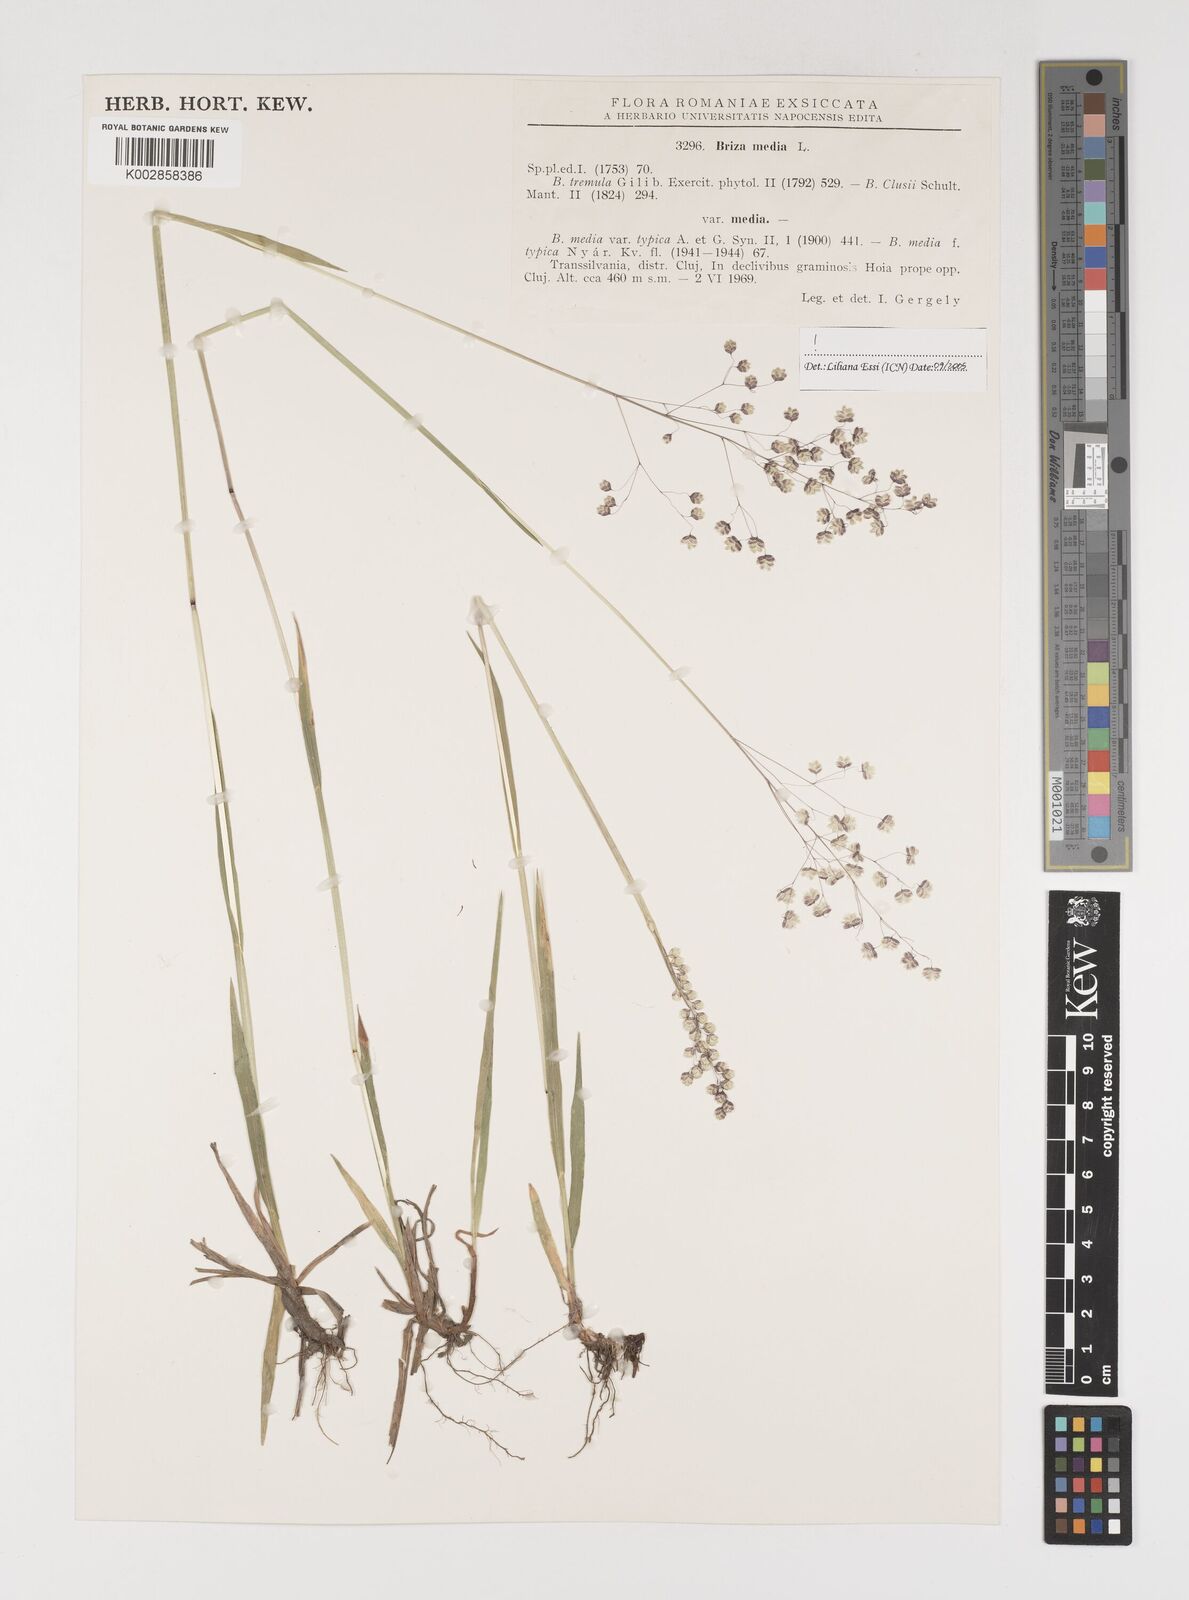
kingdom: Plantae
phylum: Tracheophyta
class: Liliopsida
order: Poales
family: Poaceae
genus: Briza
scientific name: Briza media
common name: Quaking grass
